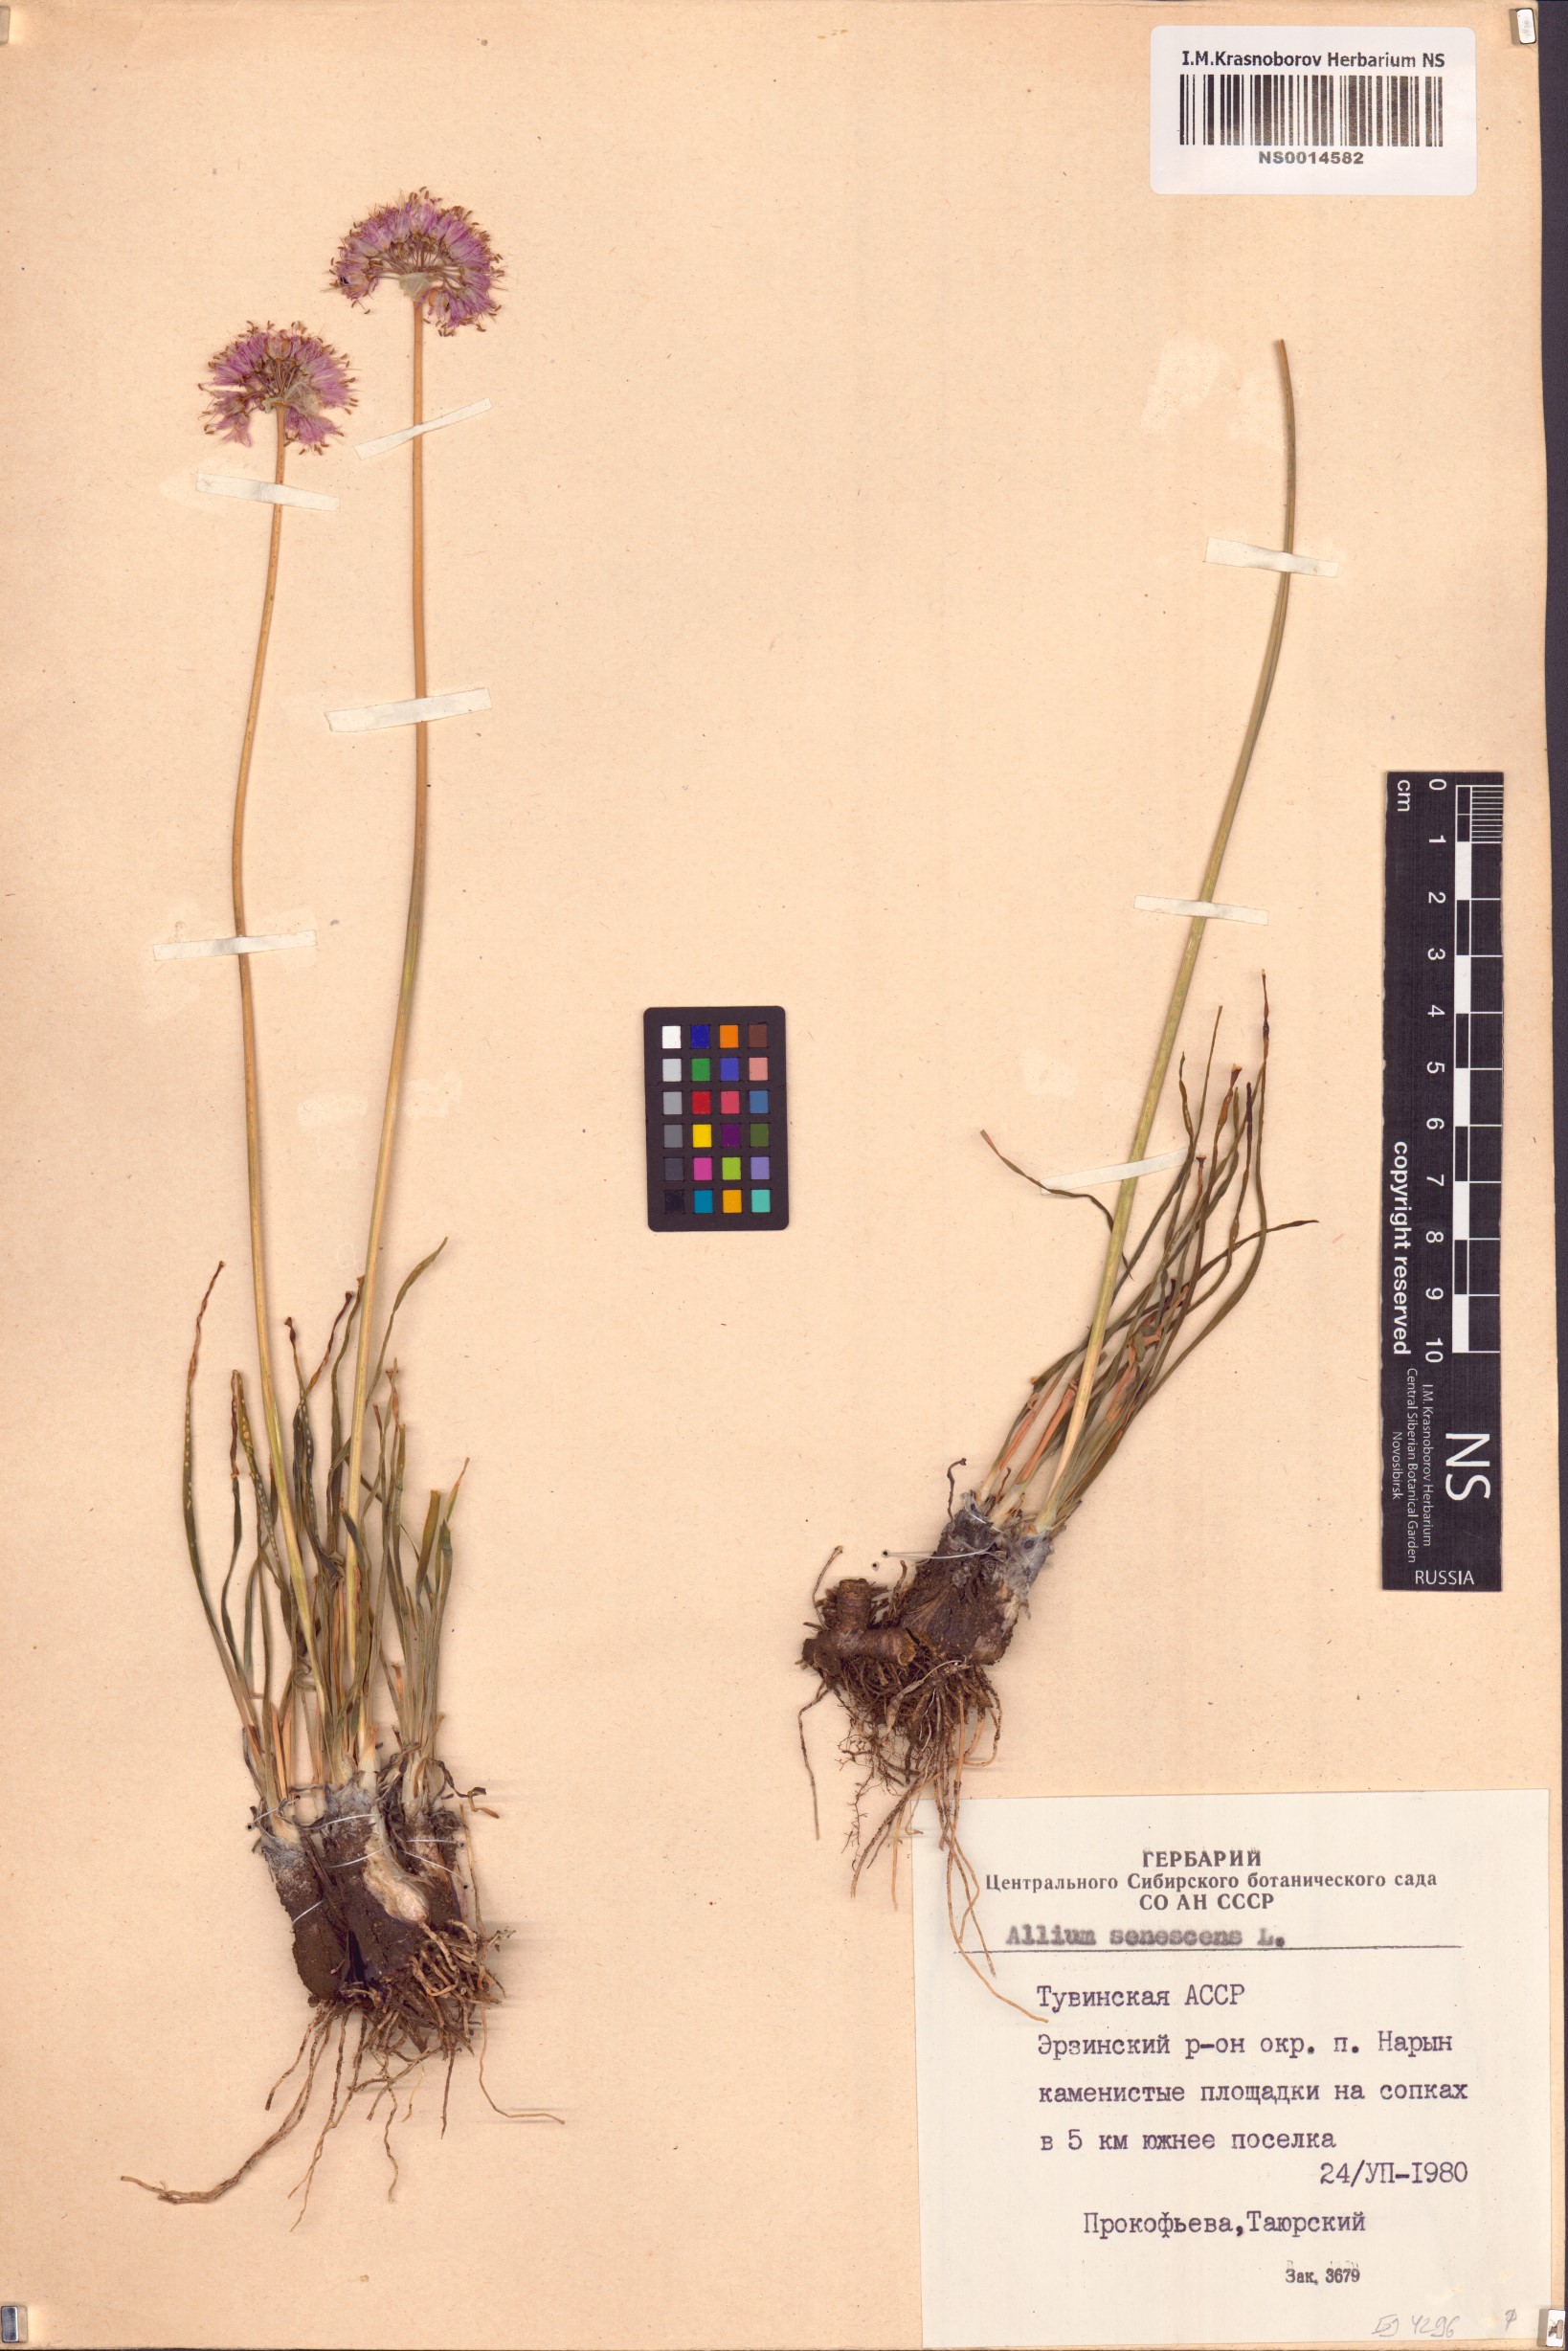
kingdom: Plantae
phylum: Tracheophyta
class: Liliopsida
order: Asparagales
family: Amaryllidaceae
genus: Allium
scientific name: Allium senescens
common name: German garlic
